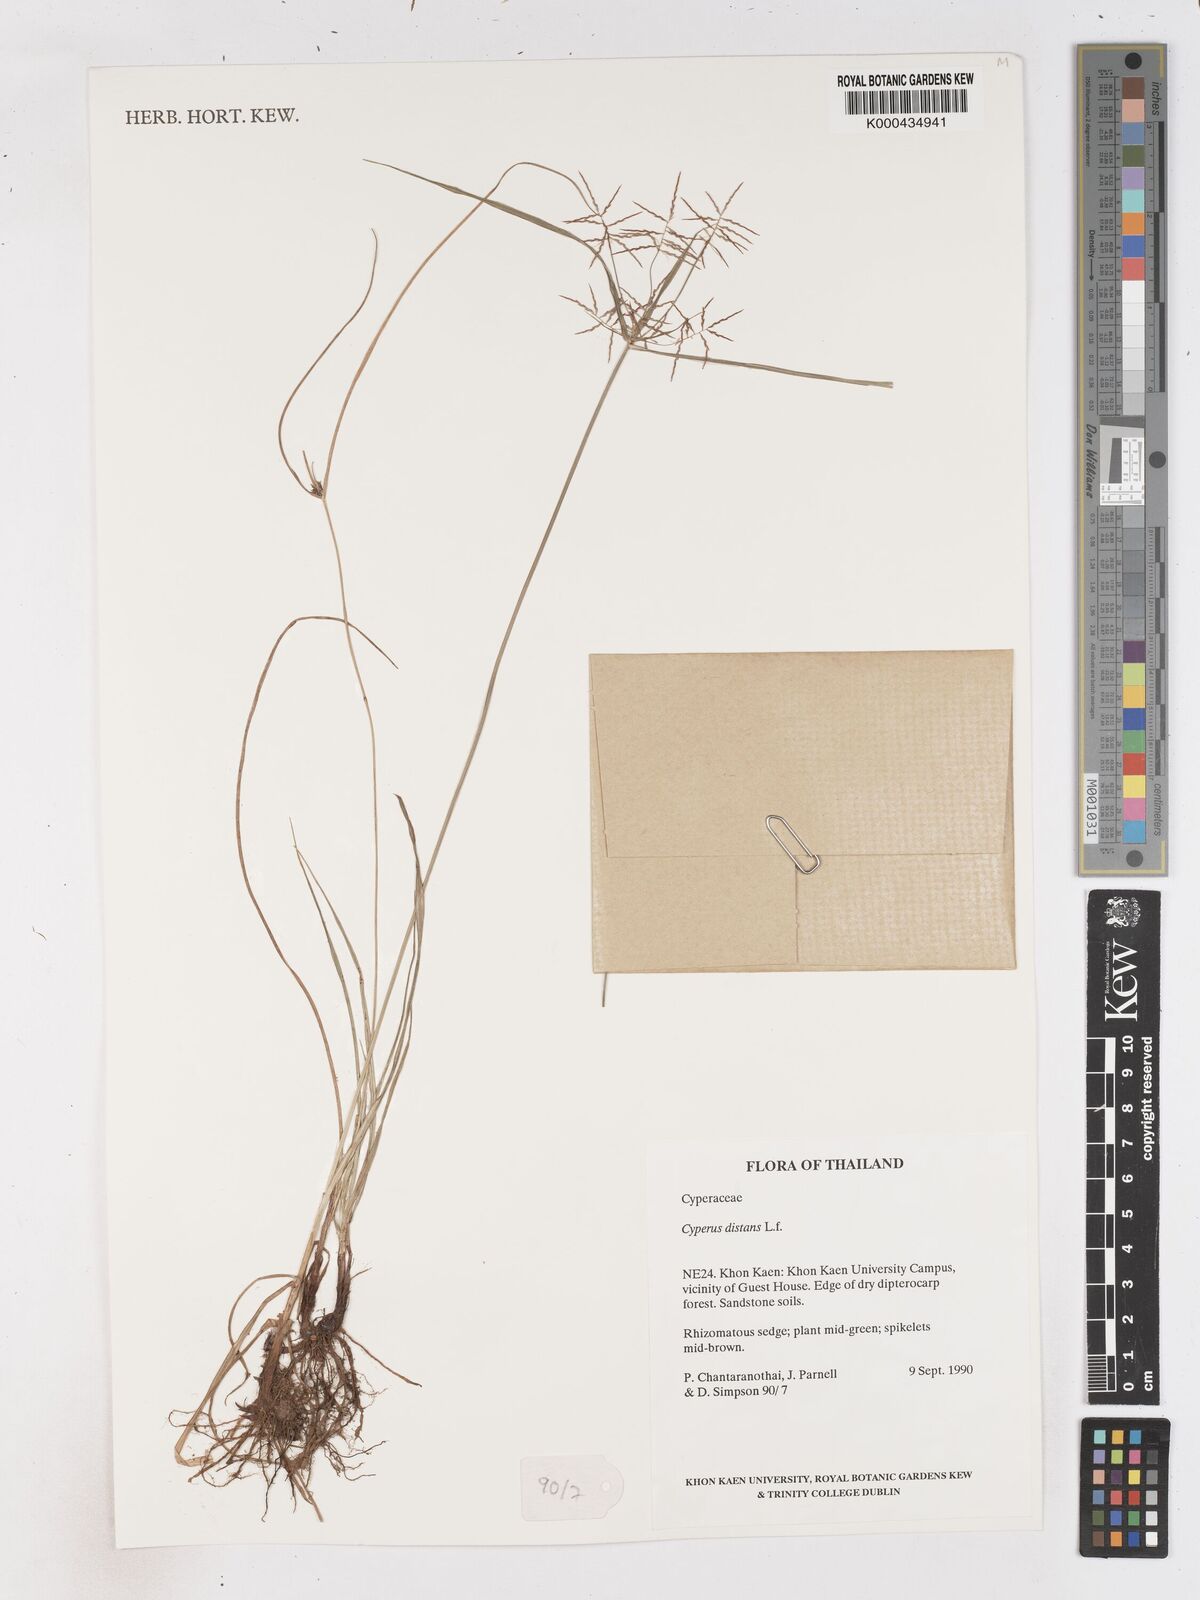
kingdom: Plantae
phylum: Tracheophyta
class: Liliopsida
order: Poales
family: Cyperaceae
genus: Cyperus
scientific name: Cyperus distans
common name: Slender cyperus
